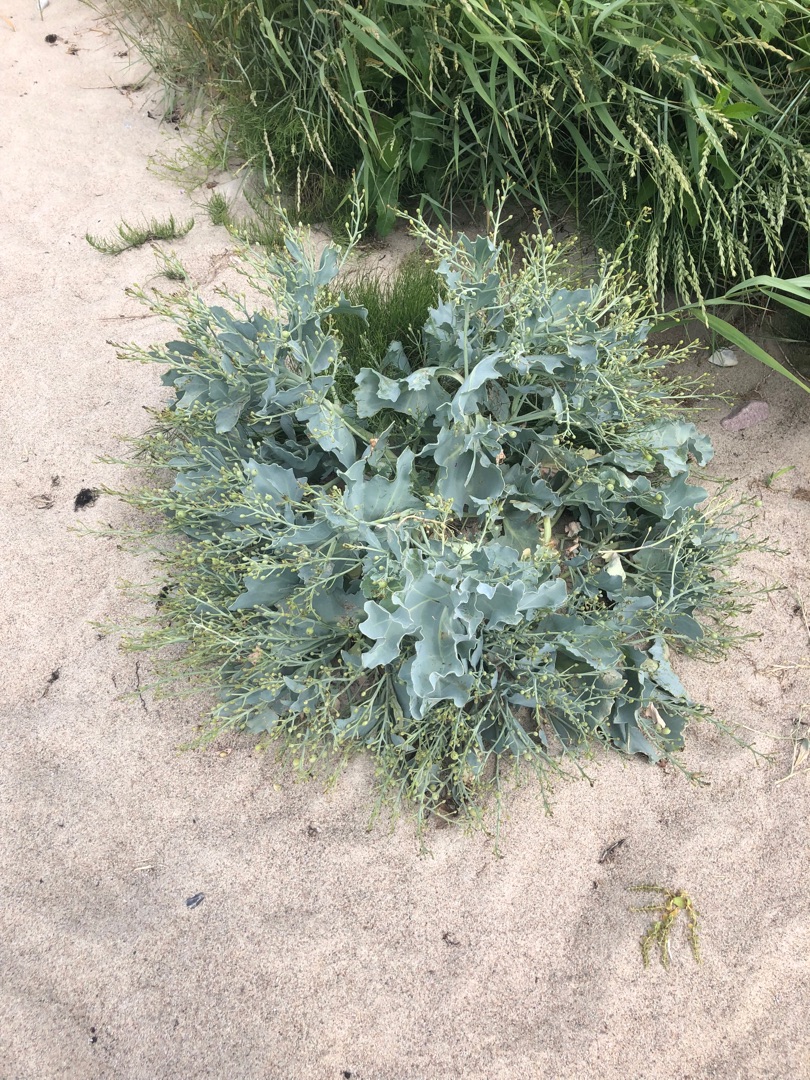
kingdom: Plantae
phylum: Tracheophyta
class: Magnoliopsida
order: Brassicales
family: Brassicaceae
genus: Crambe
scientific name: Crambe maritima
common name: Strandkål
